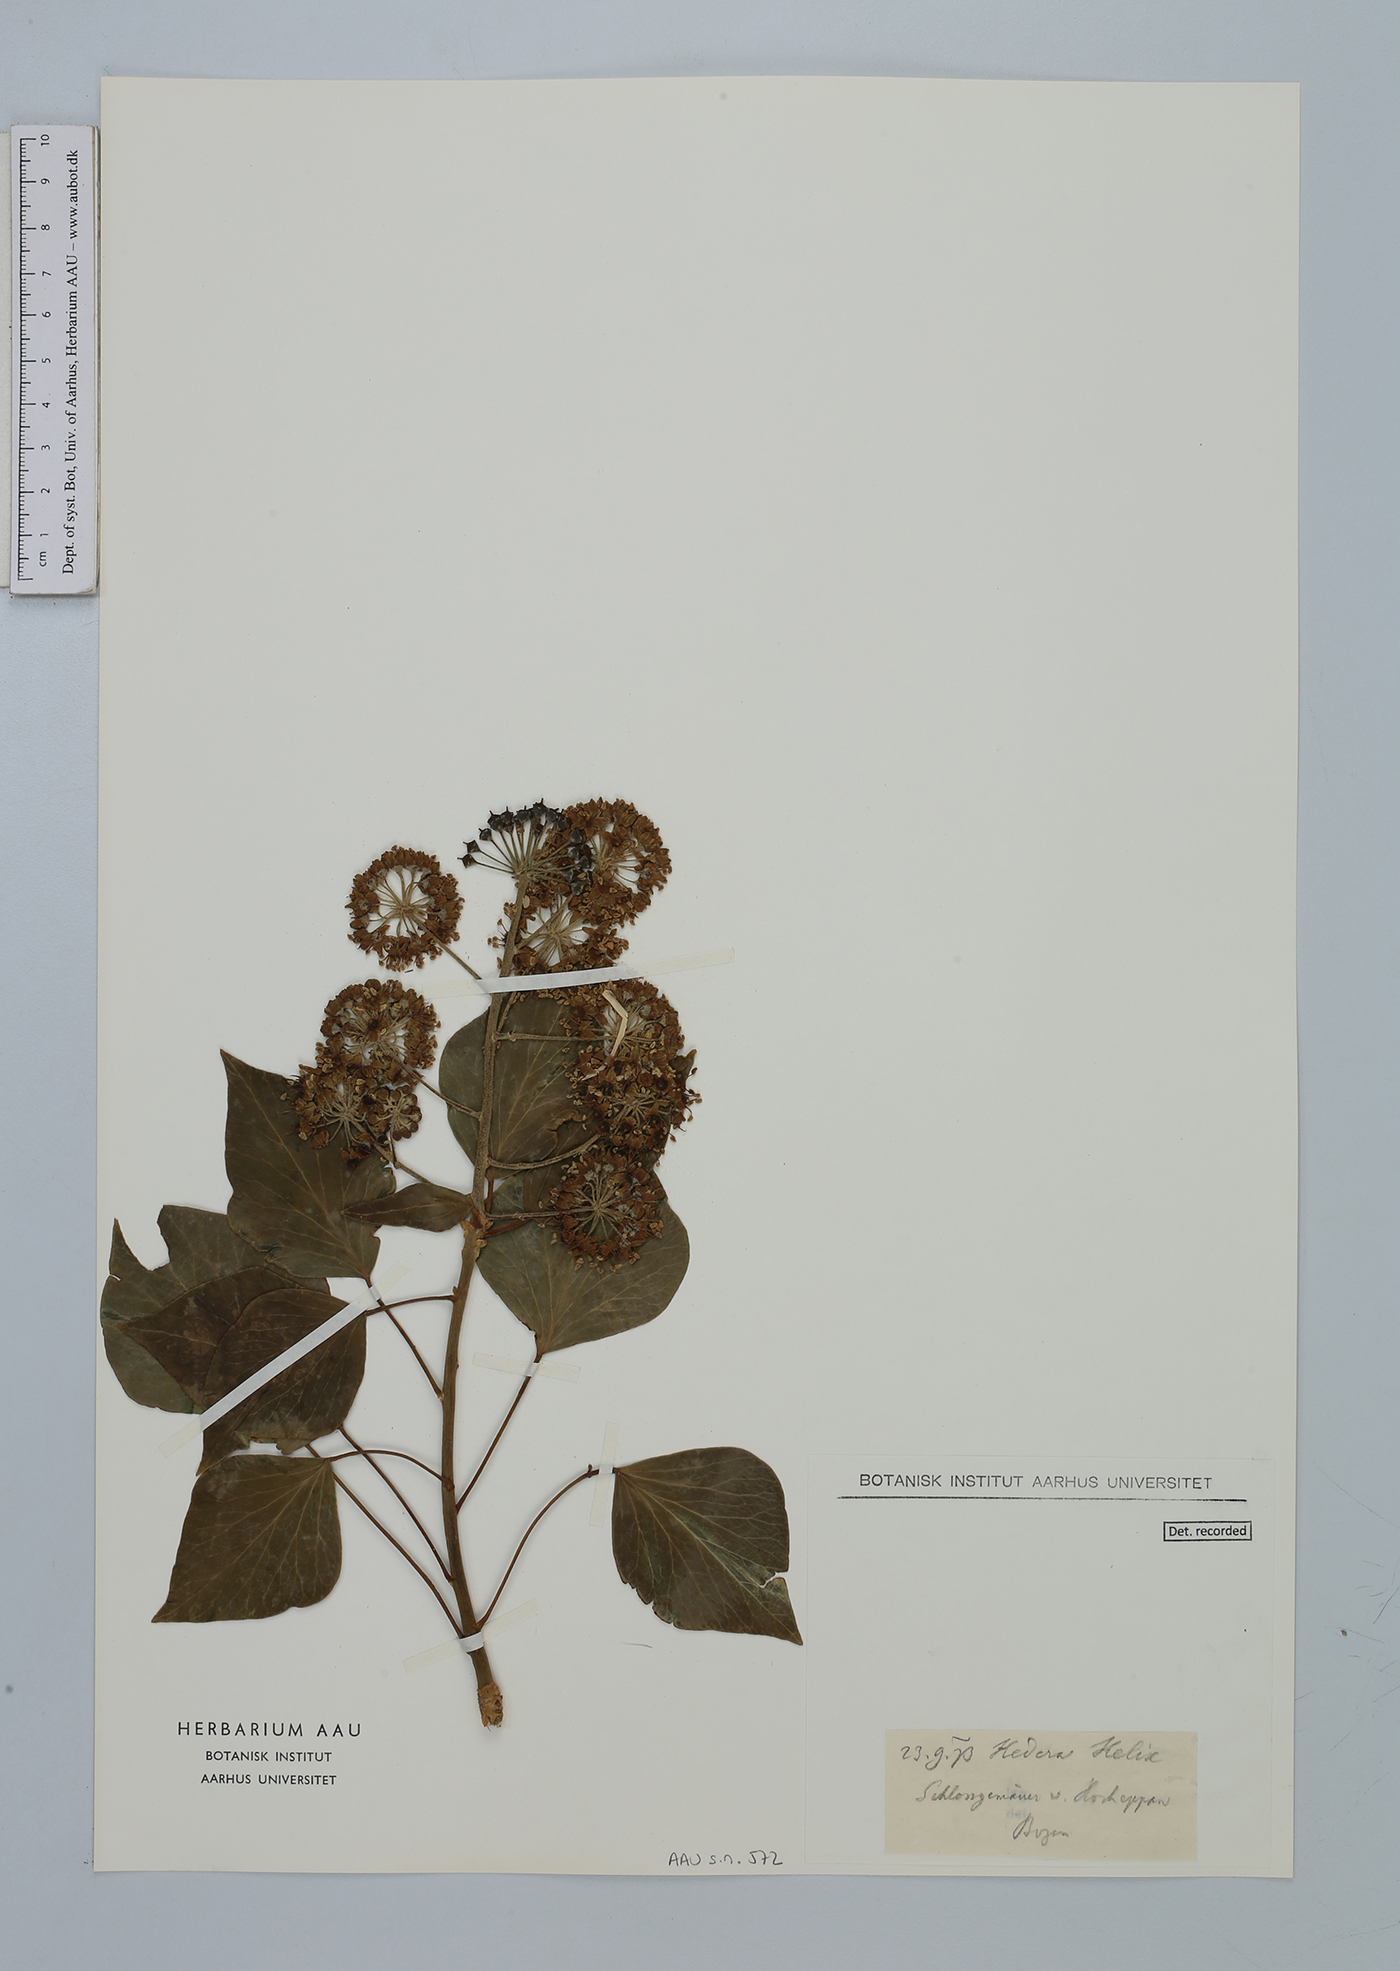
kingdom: Plantae
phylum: Tracheophyta
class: Magnoliopsida
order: Apiales
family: Araliaceae
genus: Hedera
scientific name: Hedera helix
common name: Ivy
